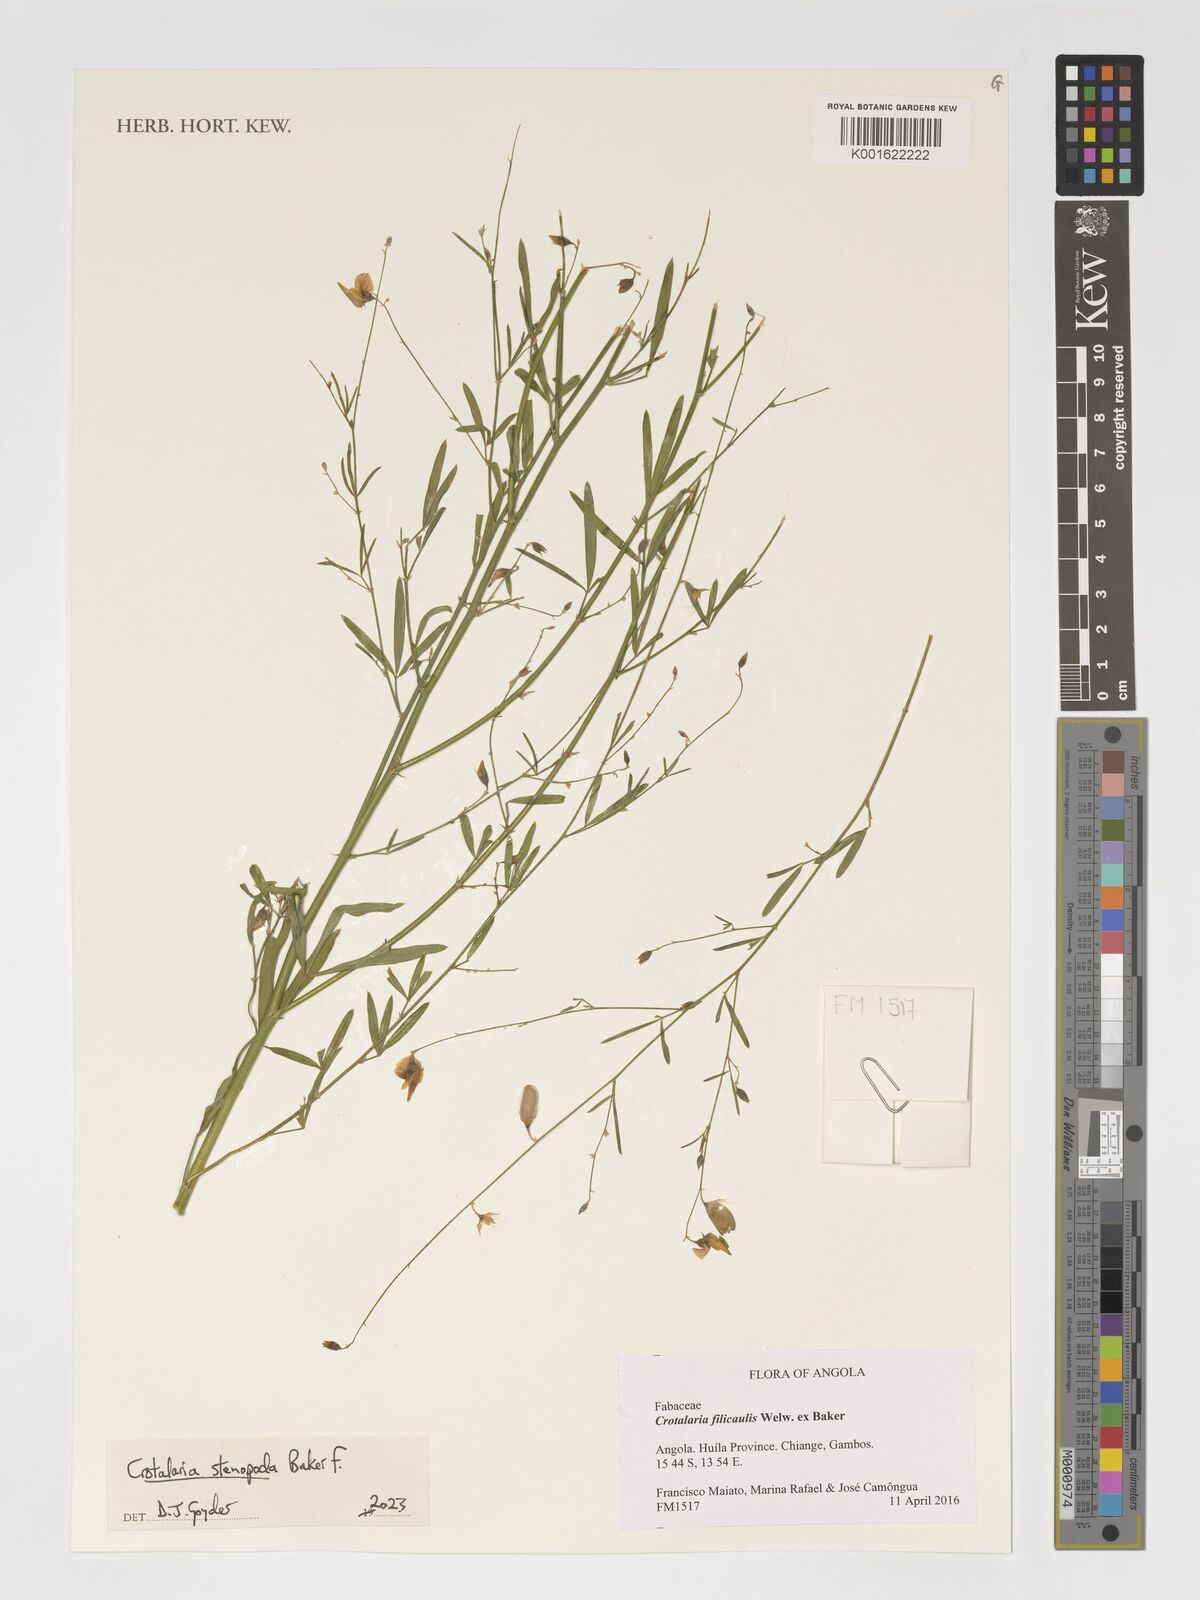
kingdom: Plantae
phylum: Tracheophyta
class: Magnoliopsida
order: Fabales
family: Fabaceae
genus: Crotalaria
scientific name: Crotalaria stenopoda
